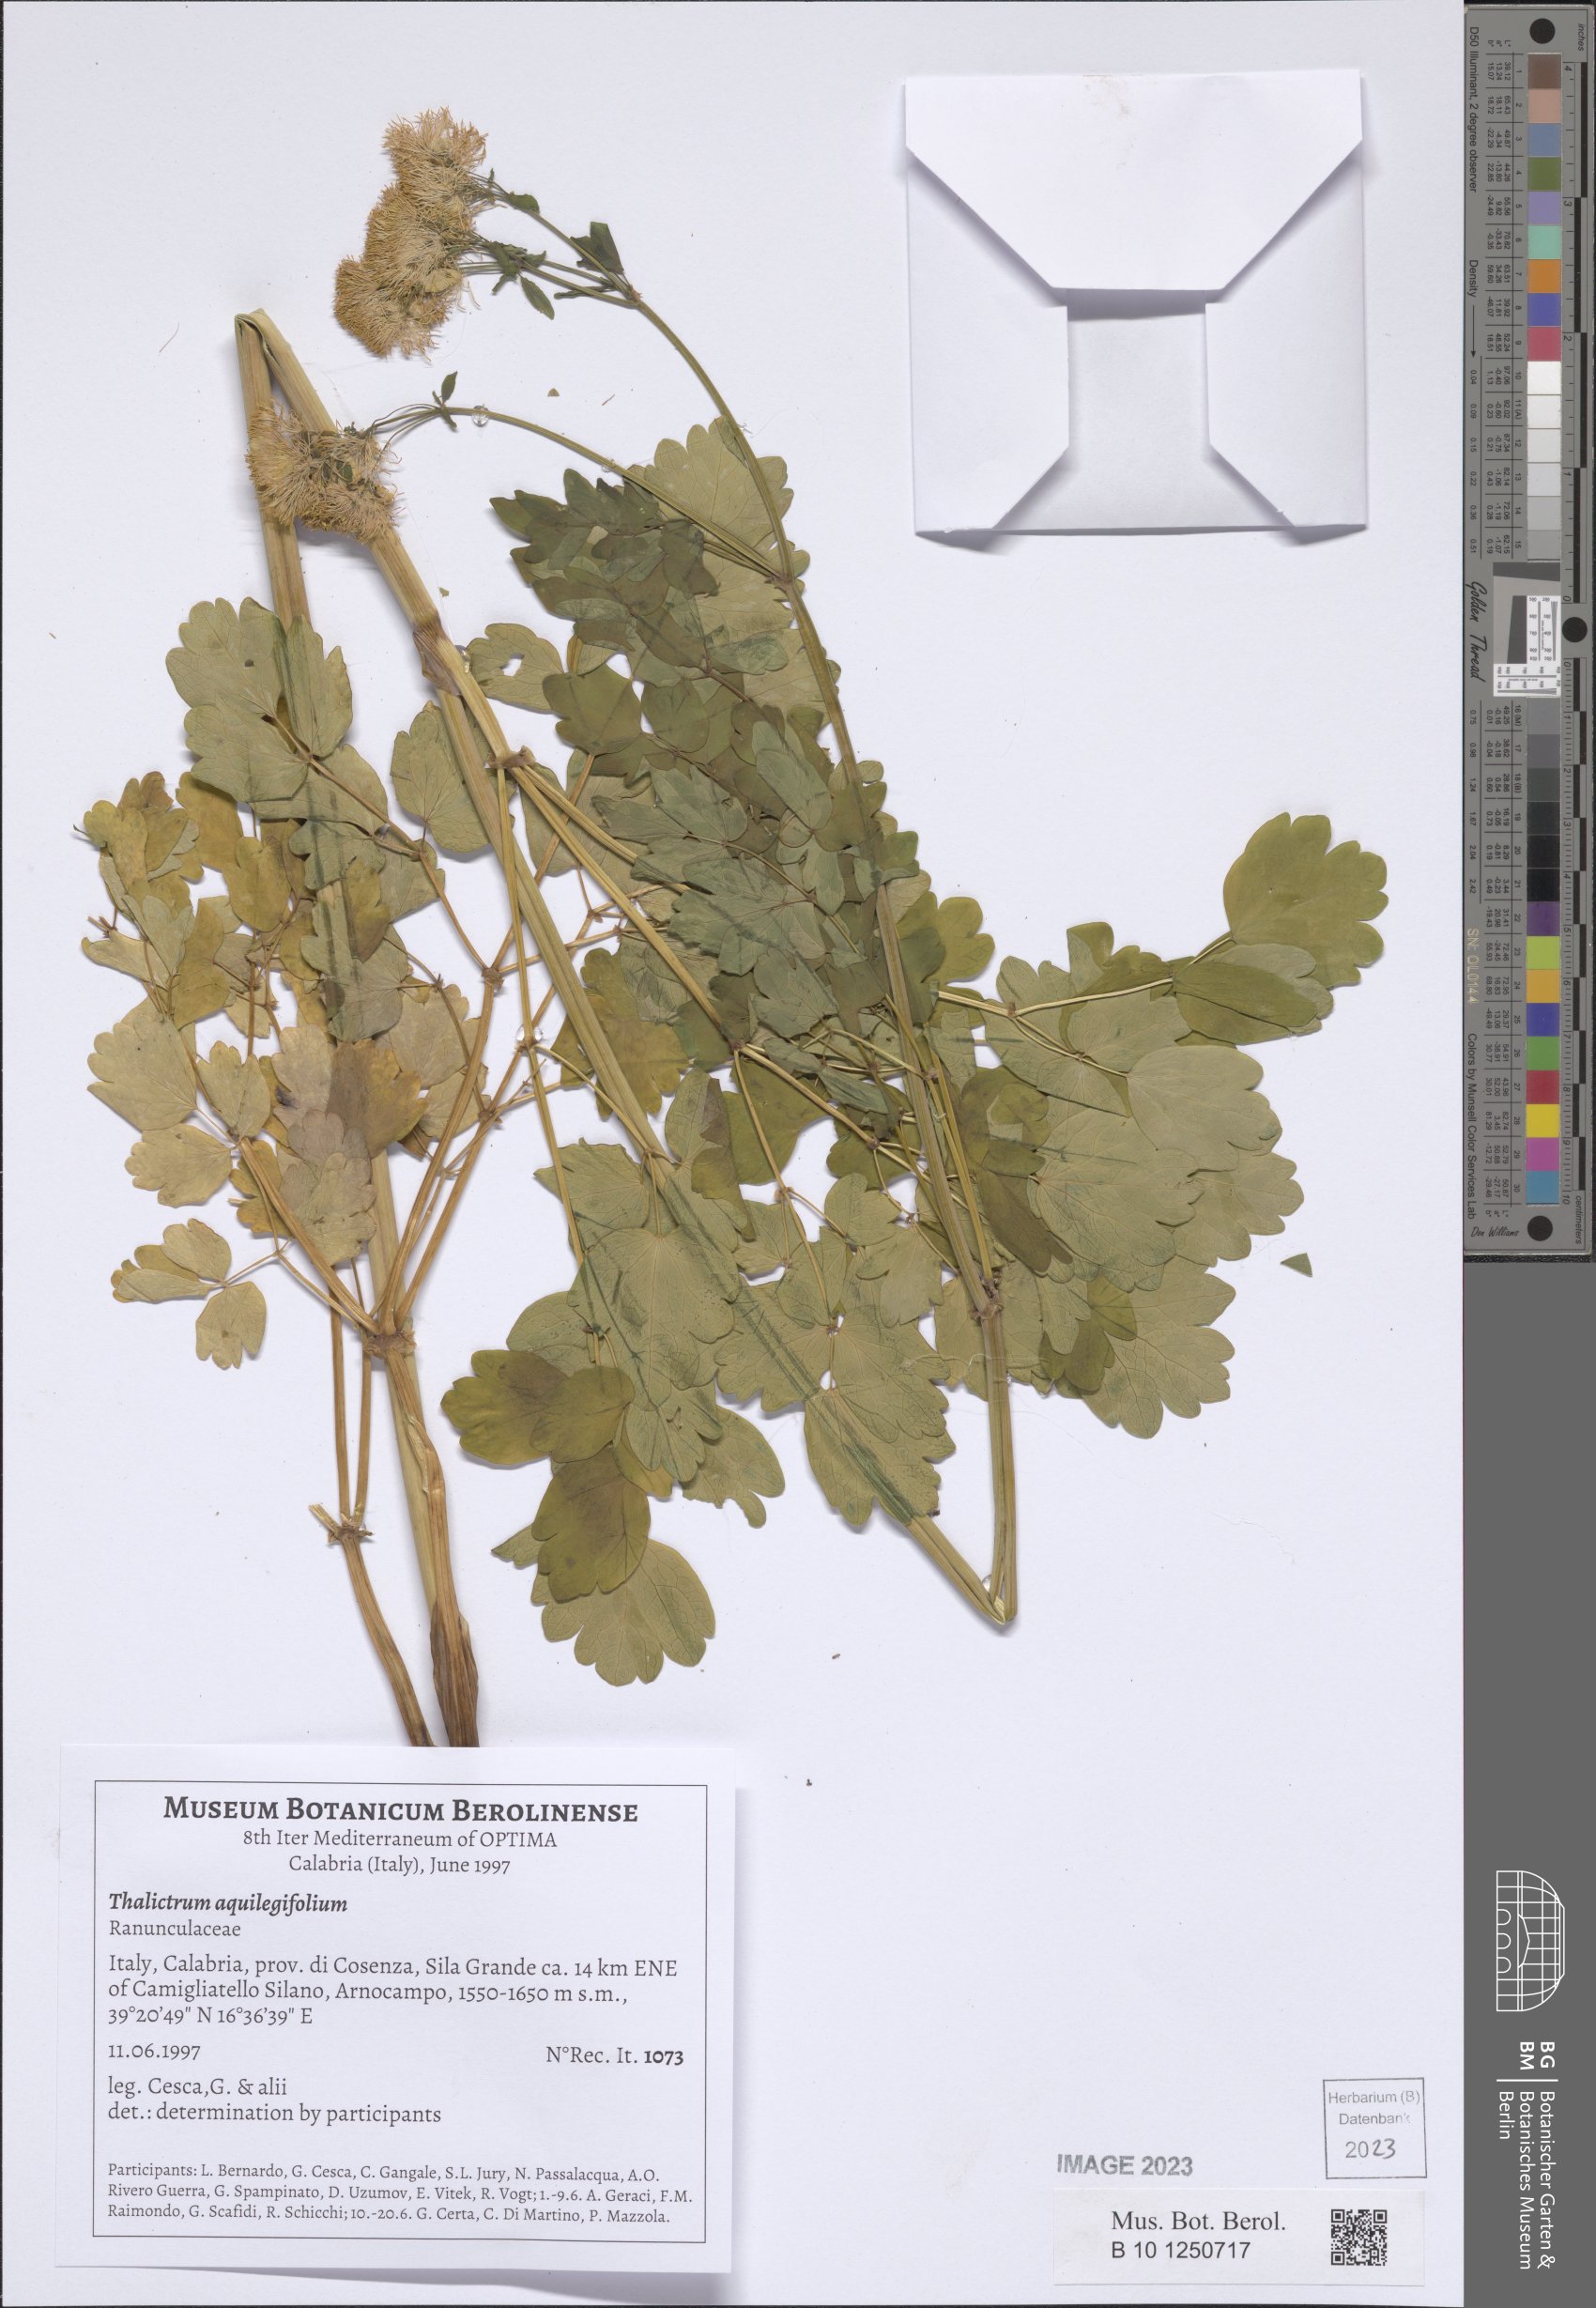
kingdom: Plantae
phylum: Tracheophyta
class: Magnoliopsida
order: Ranunculales
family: Ranunculaceae
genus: Thalictrum
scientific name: Thalictrum aquilegiifolium
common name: French meadow-rue
